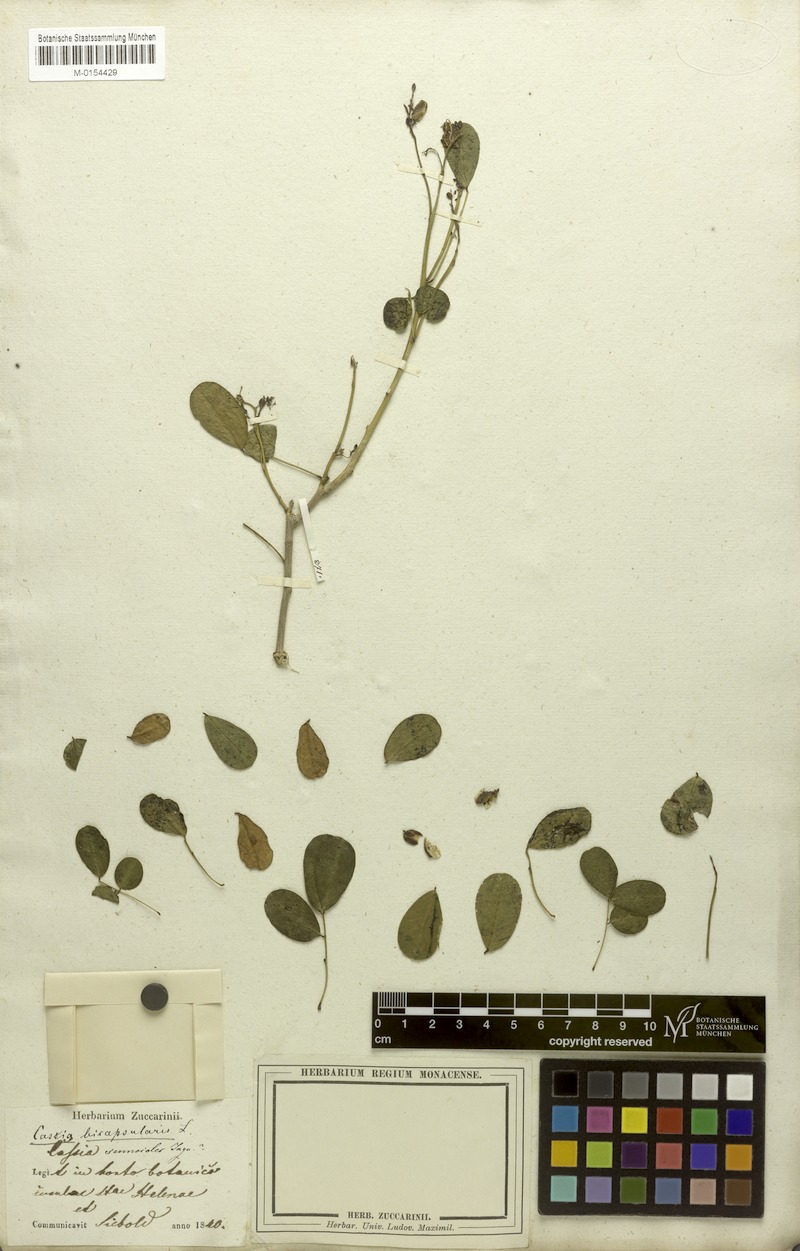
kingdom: Plantae
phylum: Tracheophyta
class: Magnoliopsida
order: Fabales
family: Fabaceae
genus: Senna
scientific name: Senna bicapsularis
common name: Christmasbush
